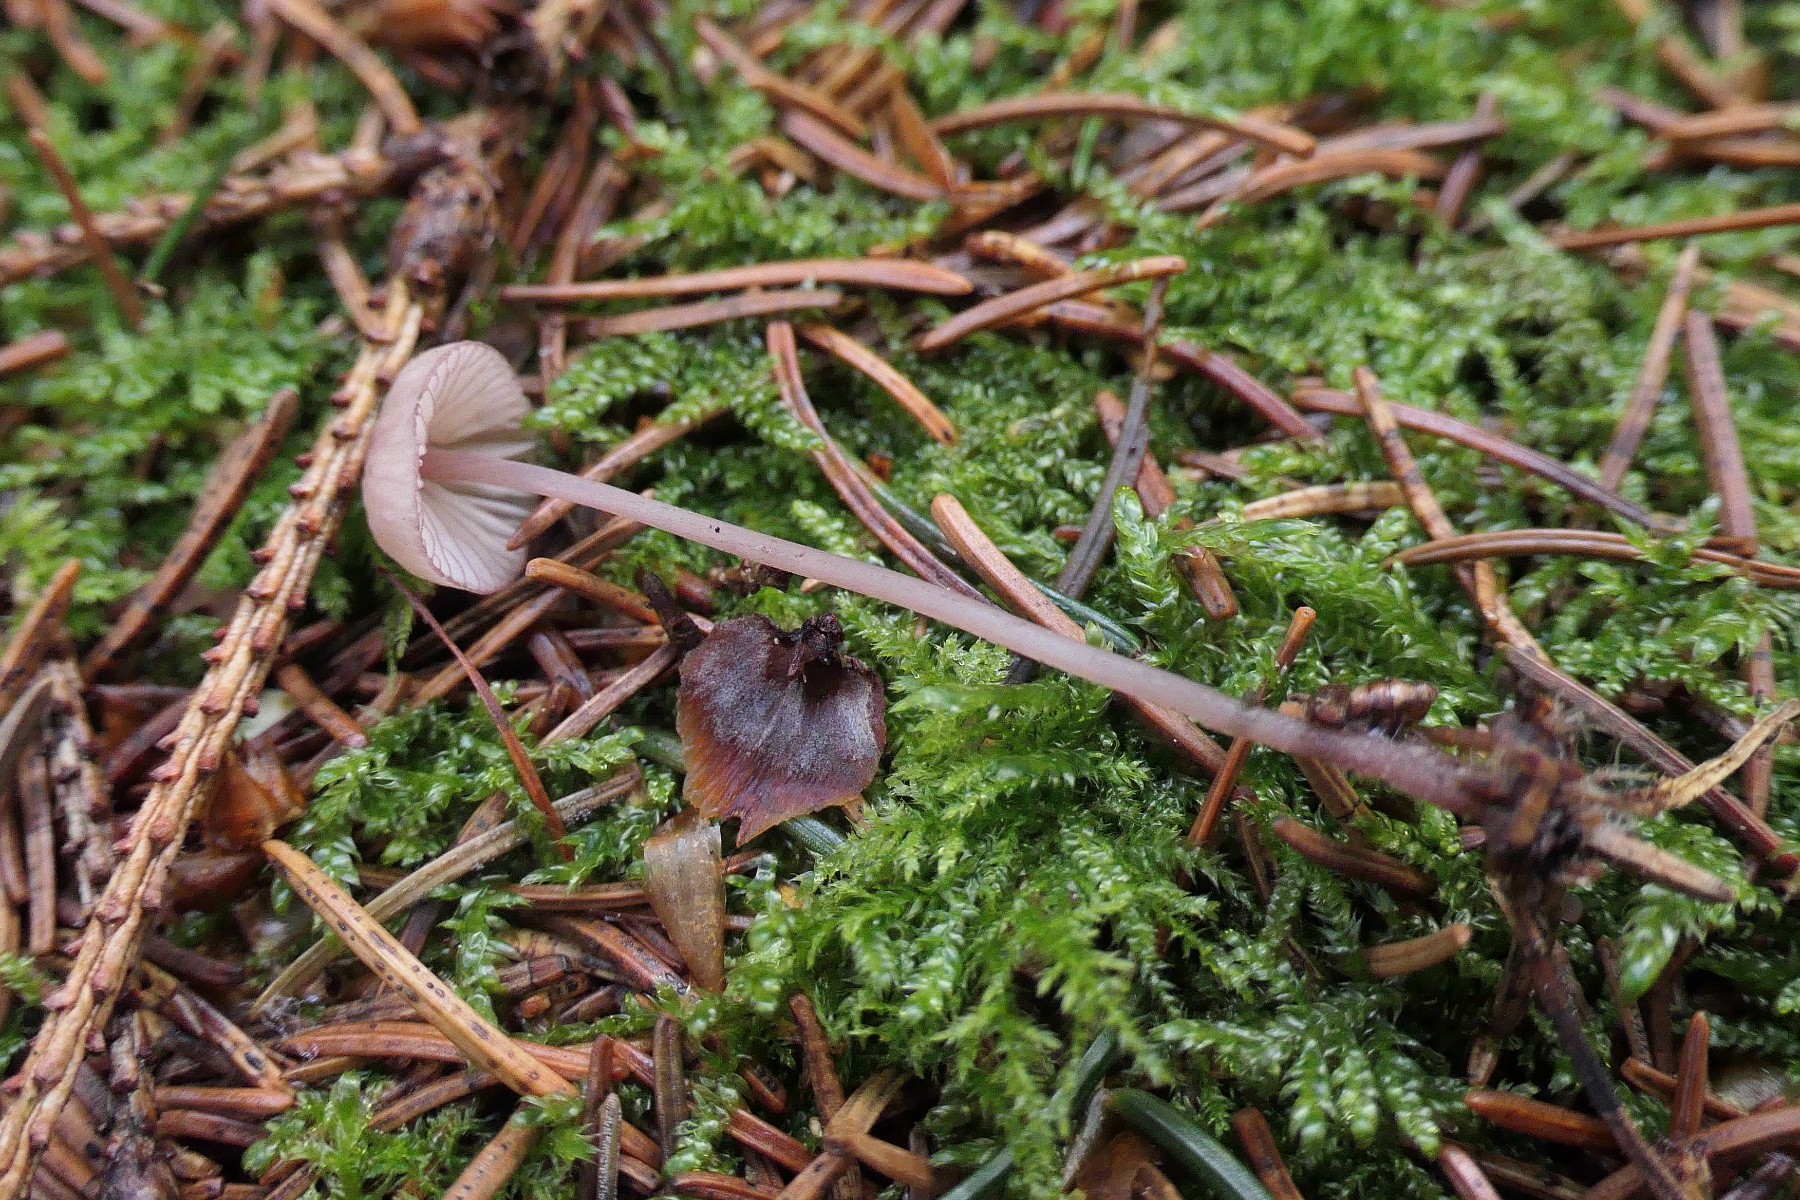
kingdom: Fungi
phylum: Basidiomycota
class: Agaricomycetes
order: Agaricales
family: Mycenaceae
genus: Mycena
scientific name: Mycena sanguinolenta
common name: rødmælket huesvamp
